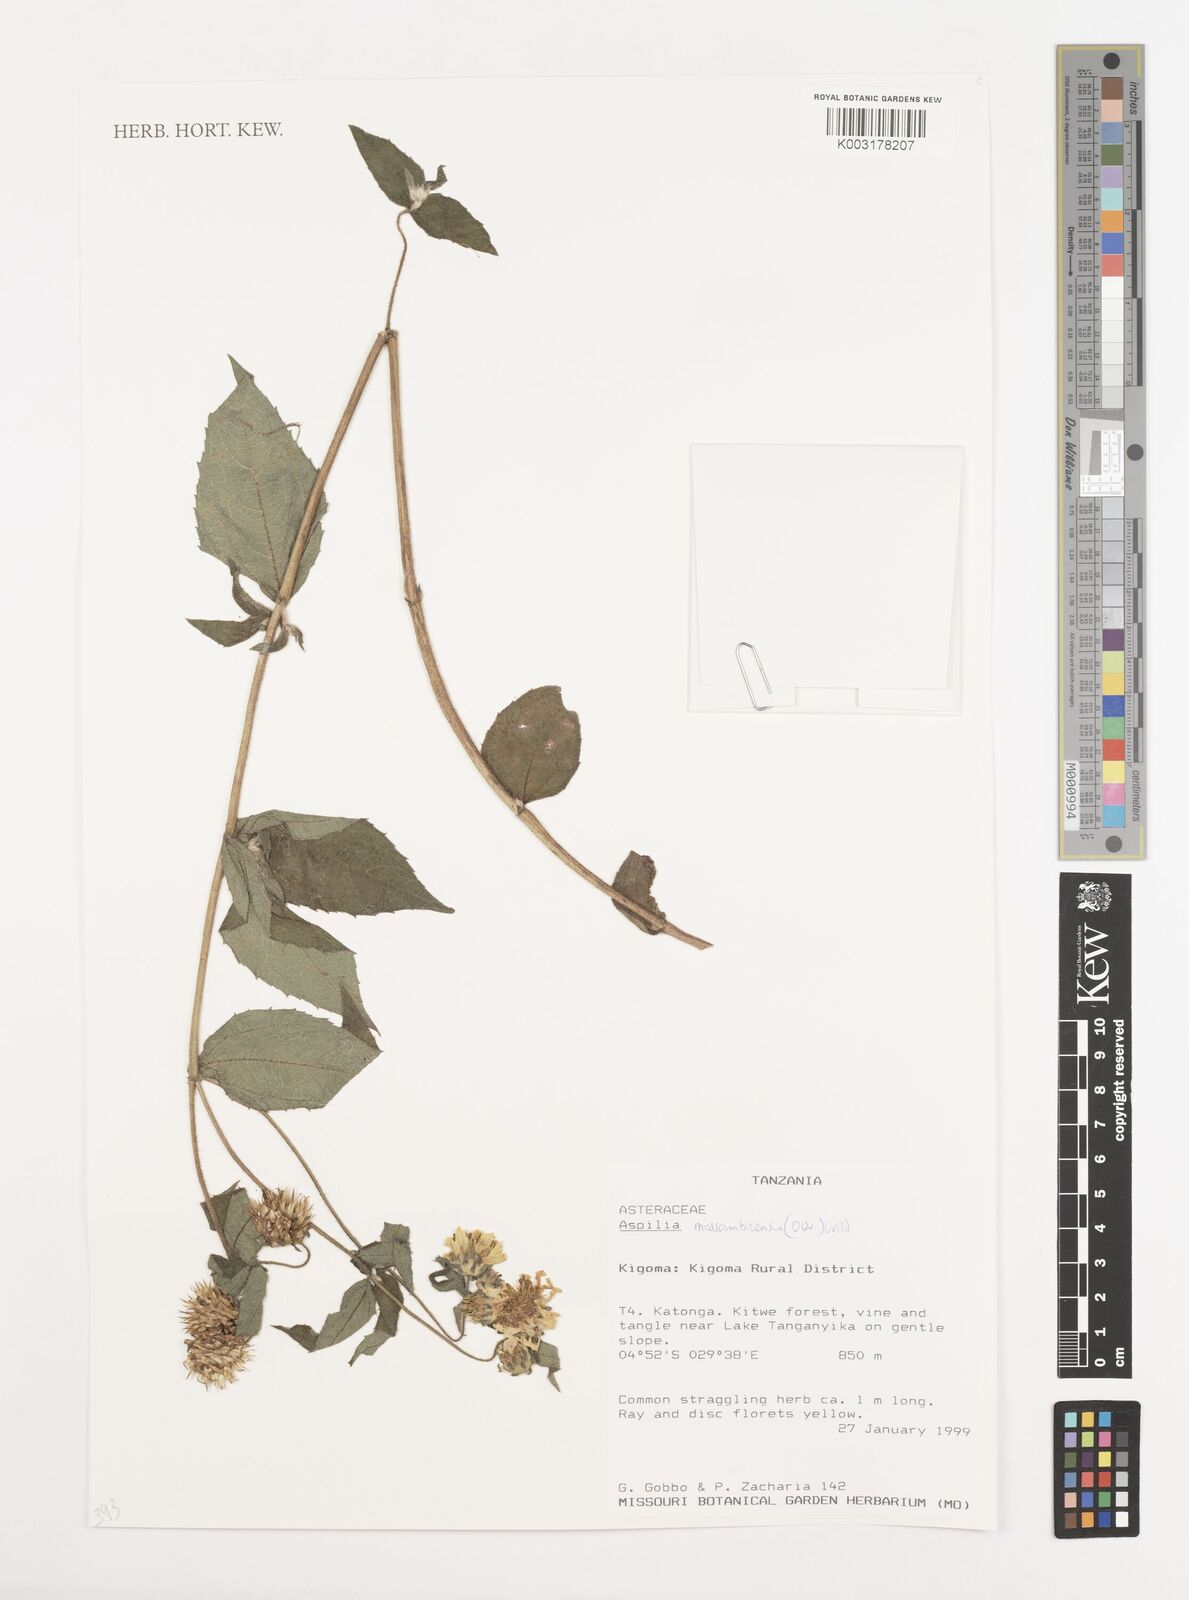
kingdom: Plantae
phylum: Tracheophyta
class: Magnoliopsida
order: Asterales
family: Asteraceae
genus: Aspilia
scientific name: Aspilia mossambicensis
